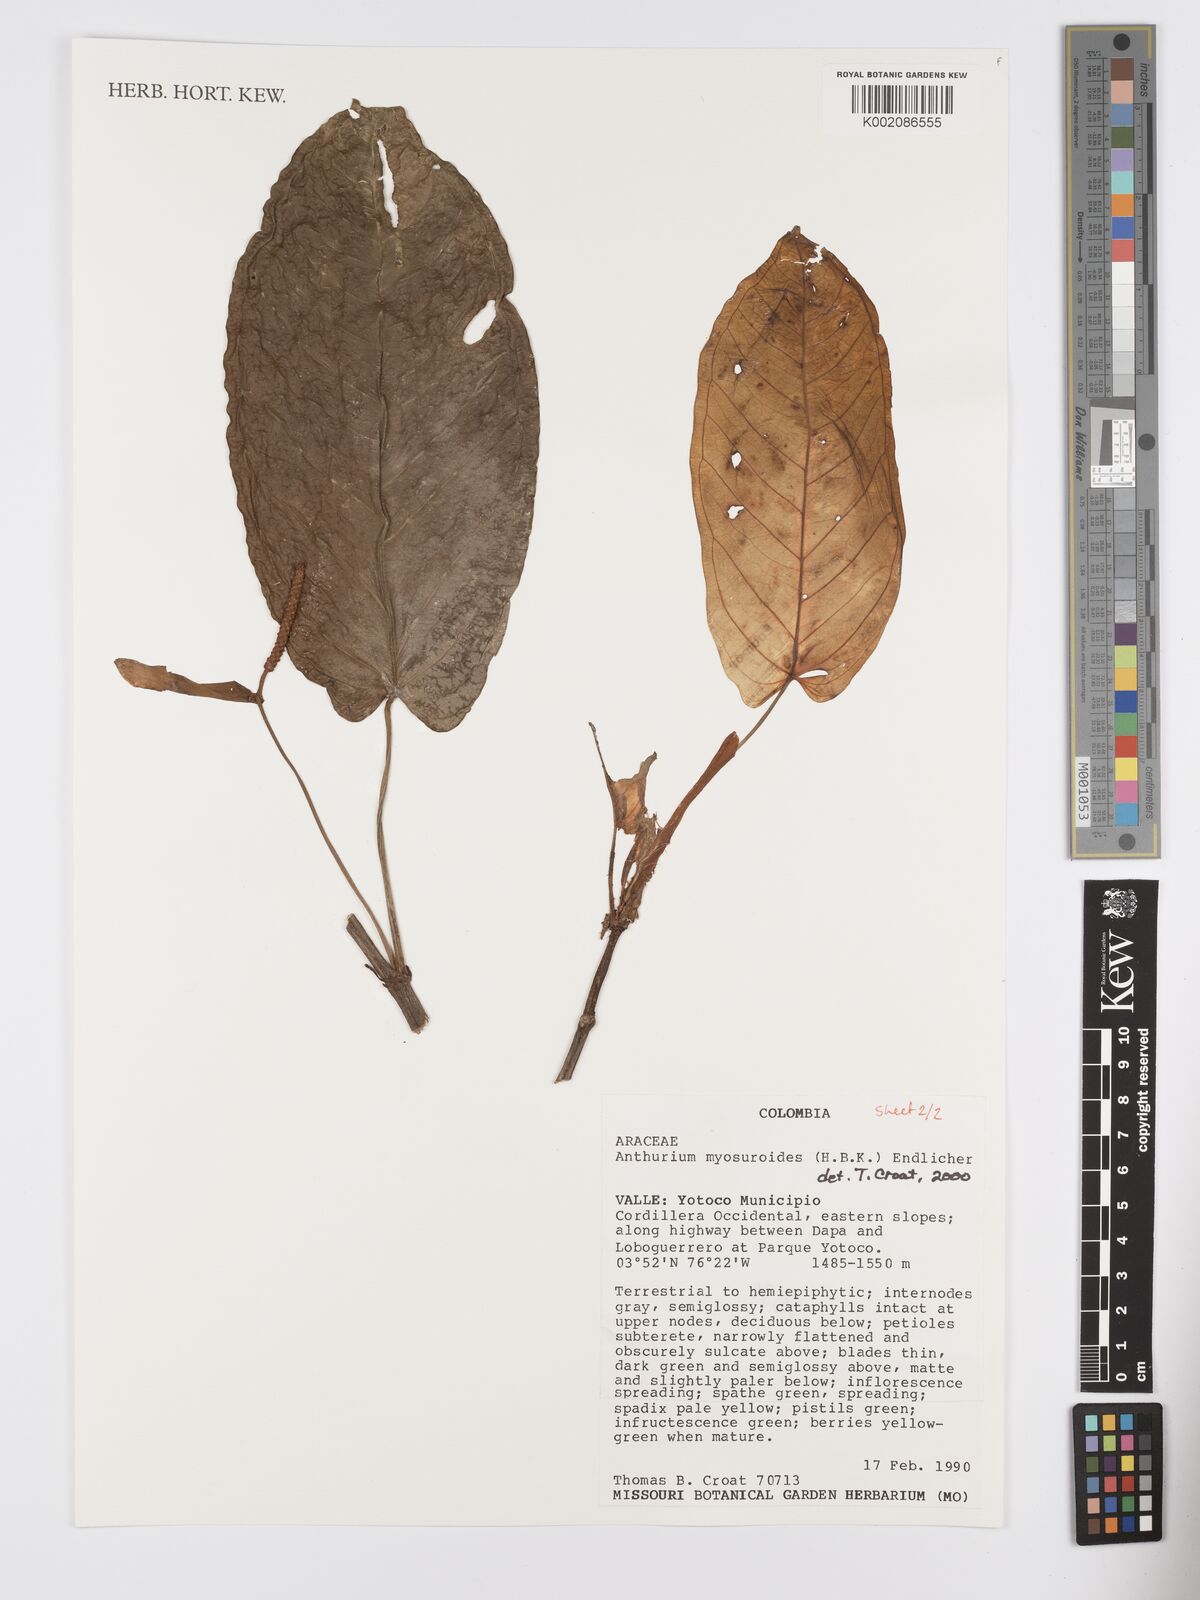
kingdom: Plantae
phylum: Tracheophyta
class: Liliopsida
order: Alismatales
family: Araceae
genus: Anthurium
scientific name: Anthurium myosuroides
